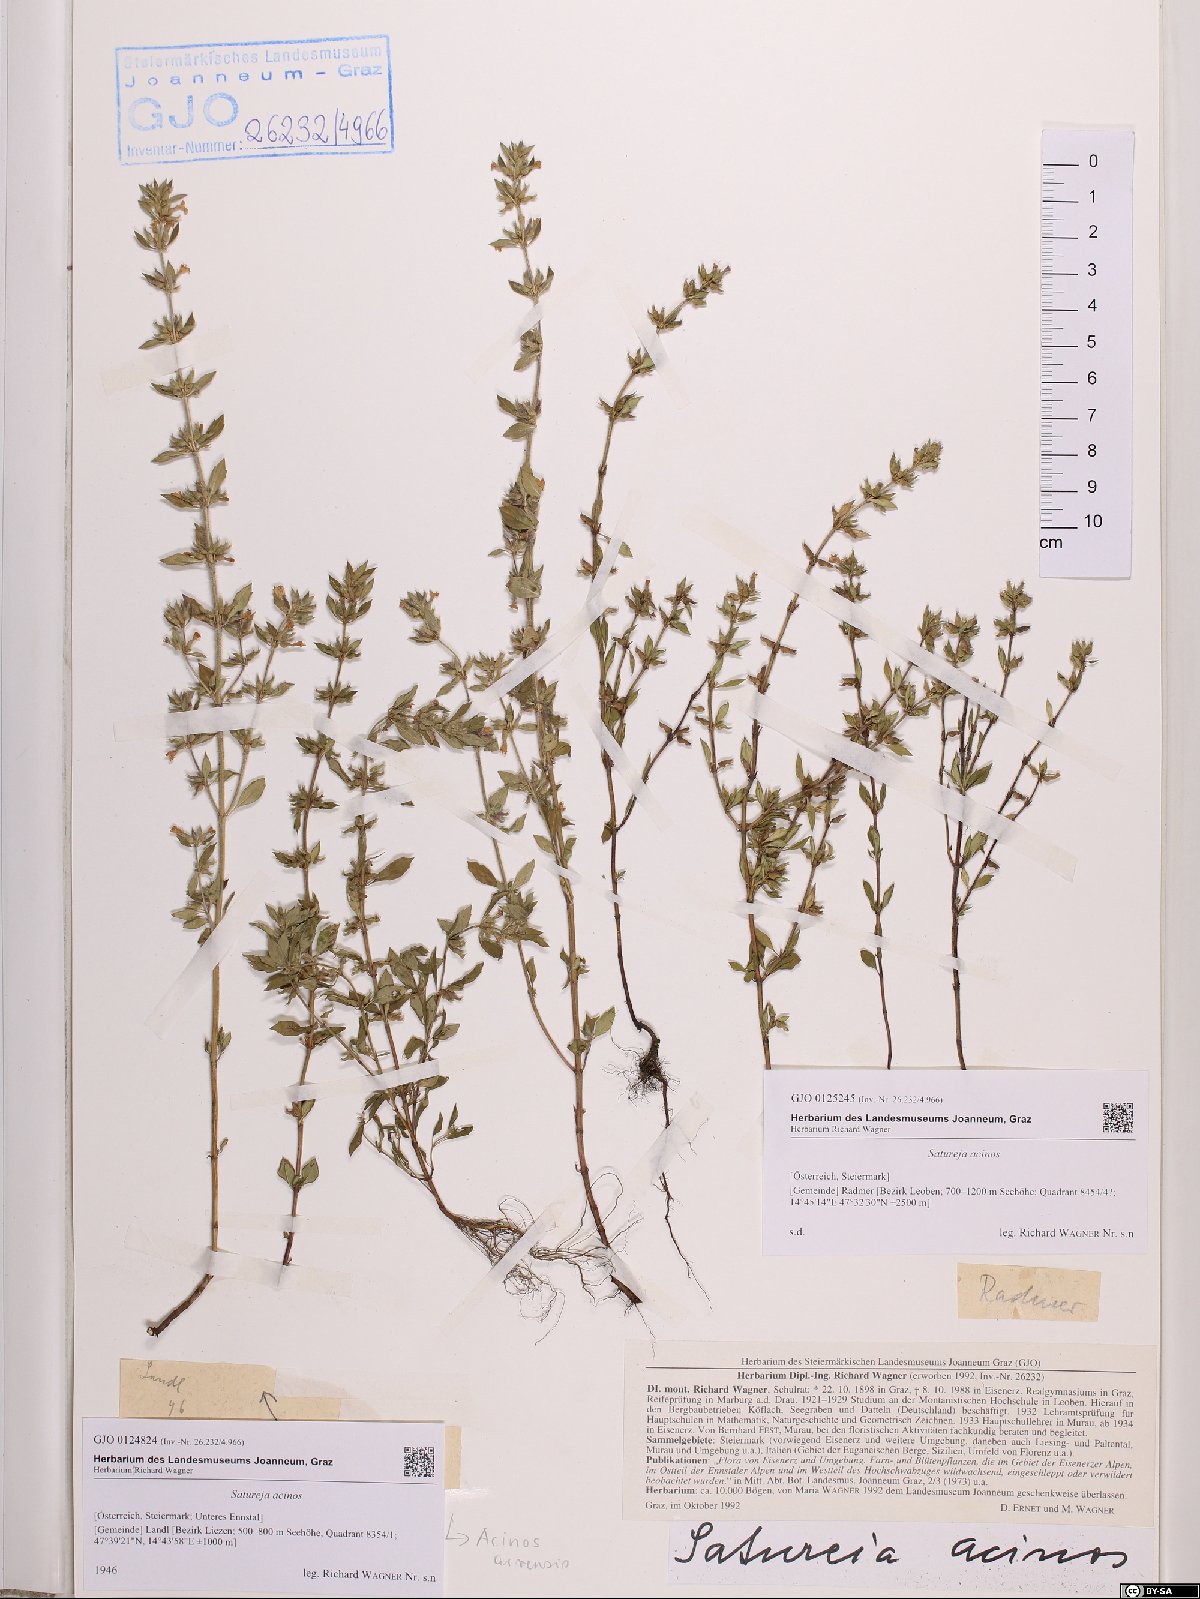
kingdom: Plantae
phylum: Tracheophyta
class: Magnoliopsida
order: Lamiales
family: Lamiaceae
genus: Clinopodium
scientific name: Clinopodium acinos
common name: Basil thyme
